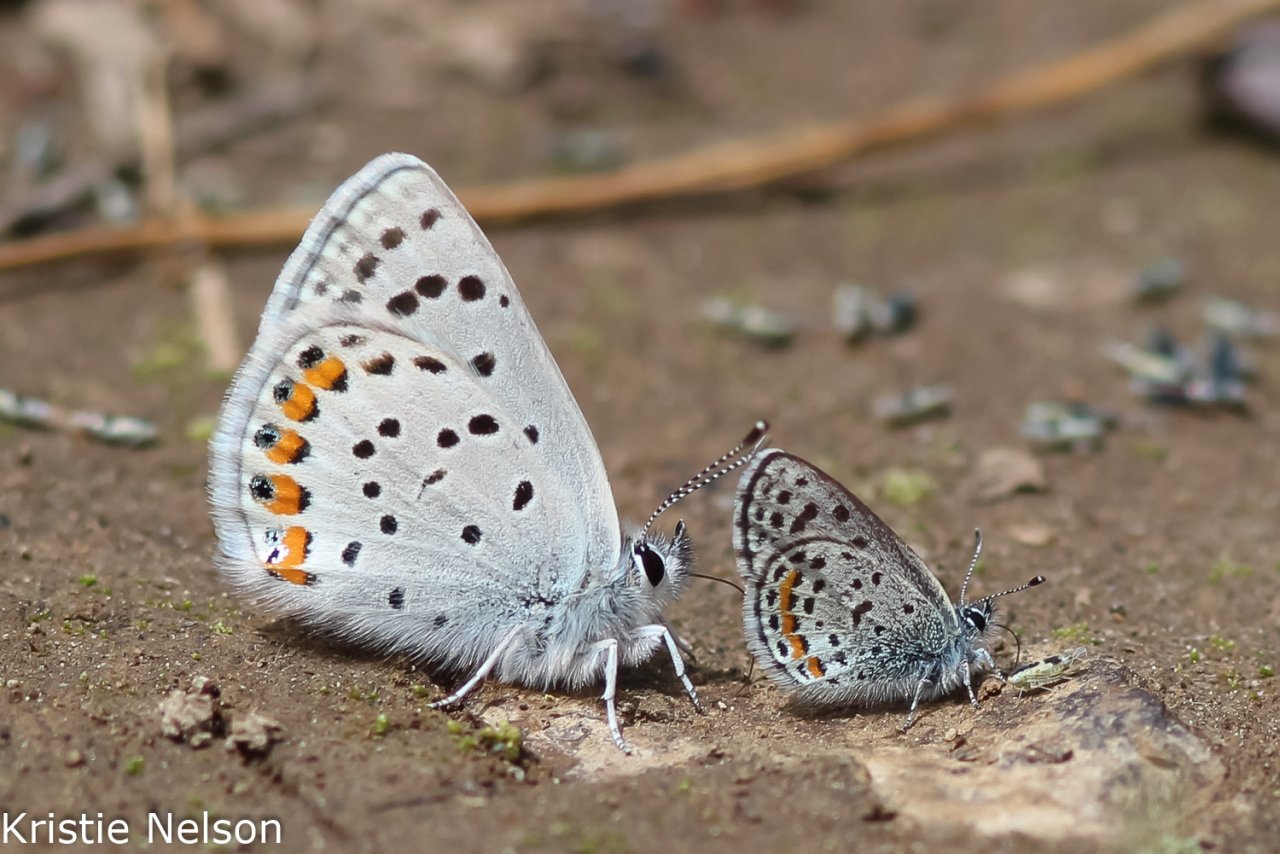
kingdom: Animalia
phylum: Arthropoda
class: Insecta
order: Lepidoptera
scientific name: Lepidoptera
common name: Butterflies
